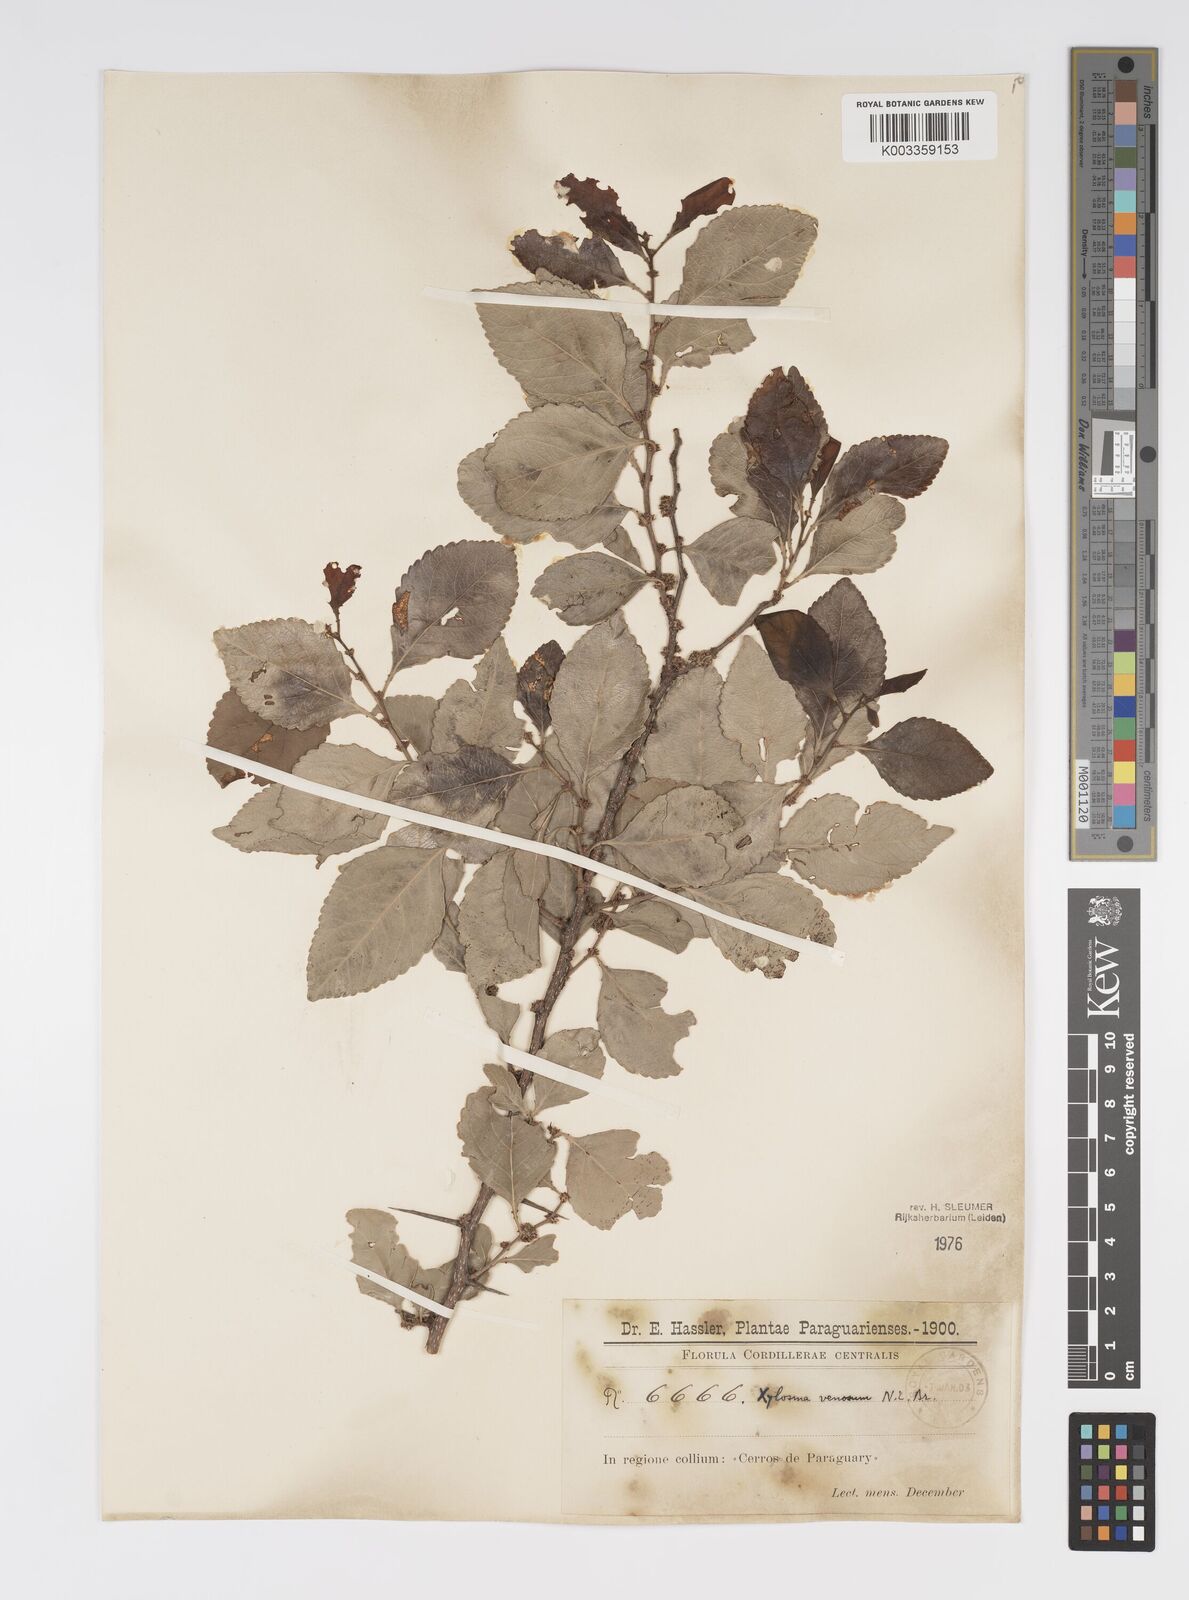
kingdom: Plantae
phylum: Tracheophyta
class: Magnoliopsida
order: Malpighiales
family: Salicaceae
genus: Xylosma
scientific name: Xylosma venosa
